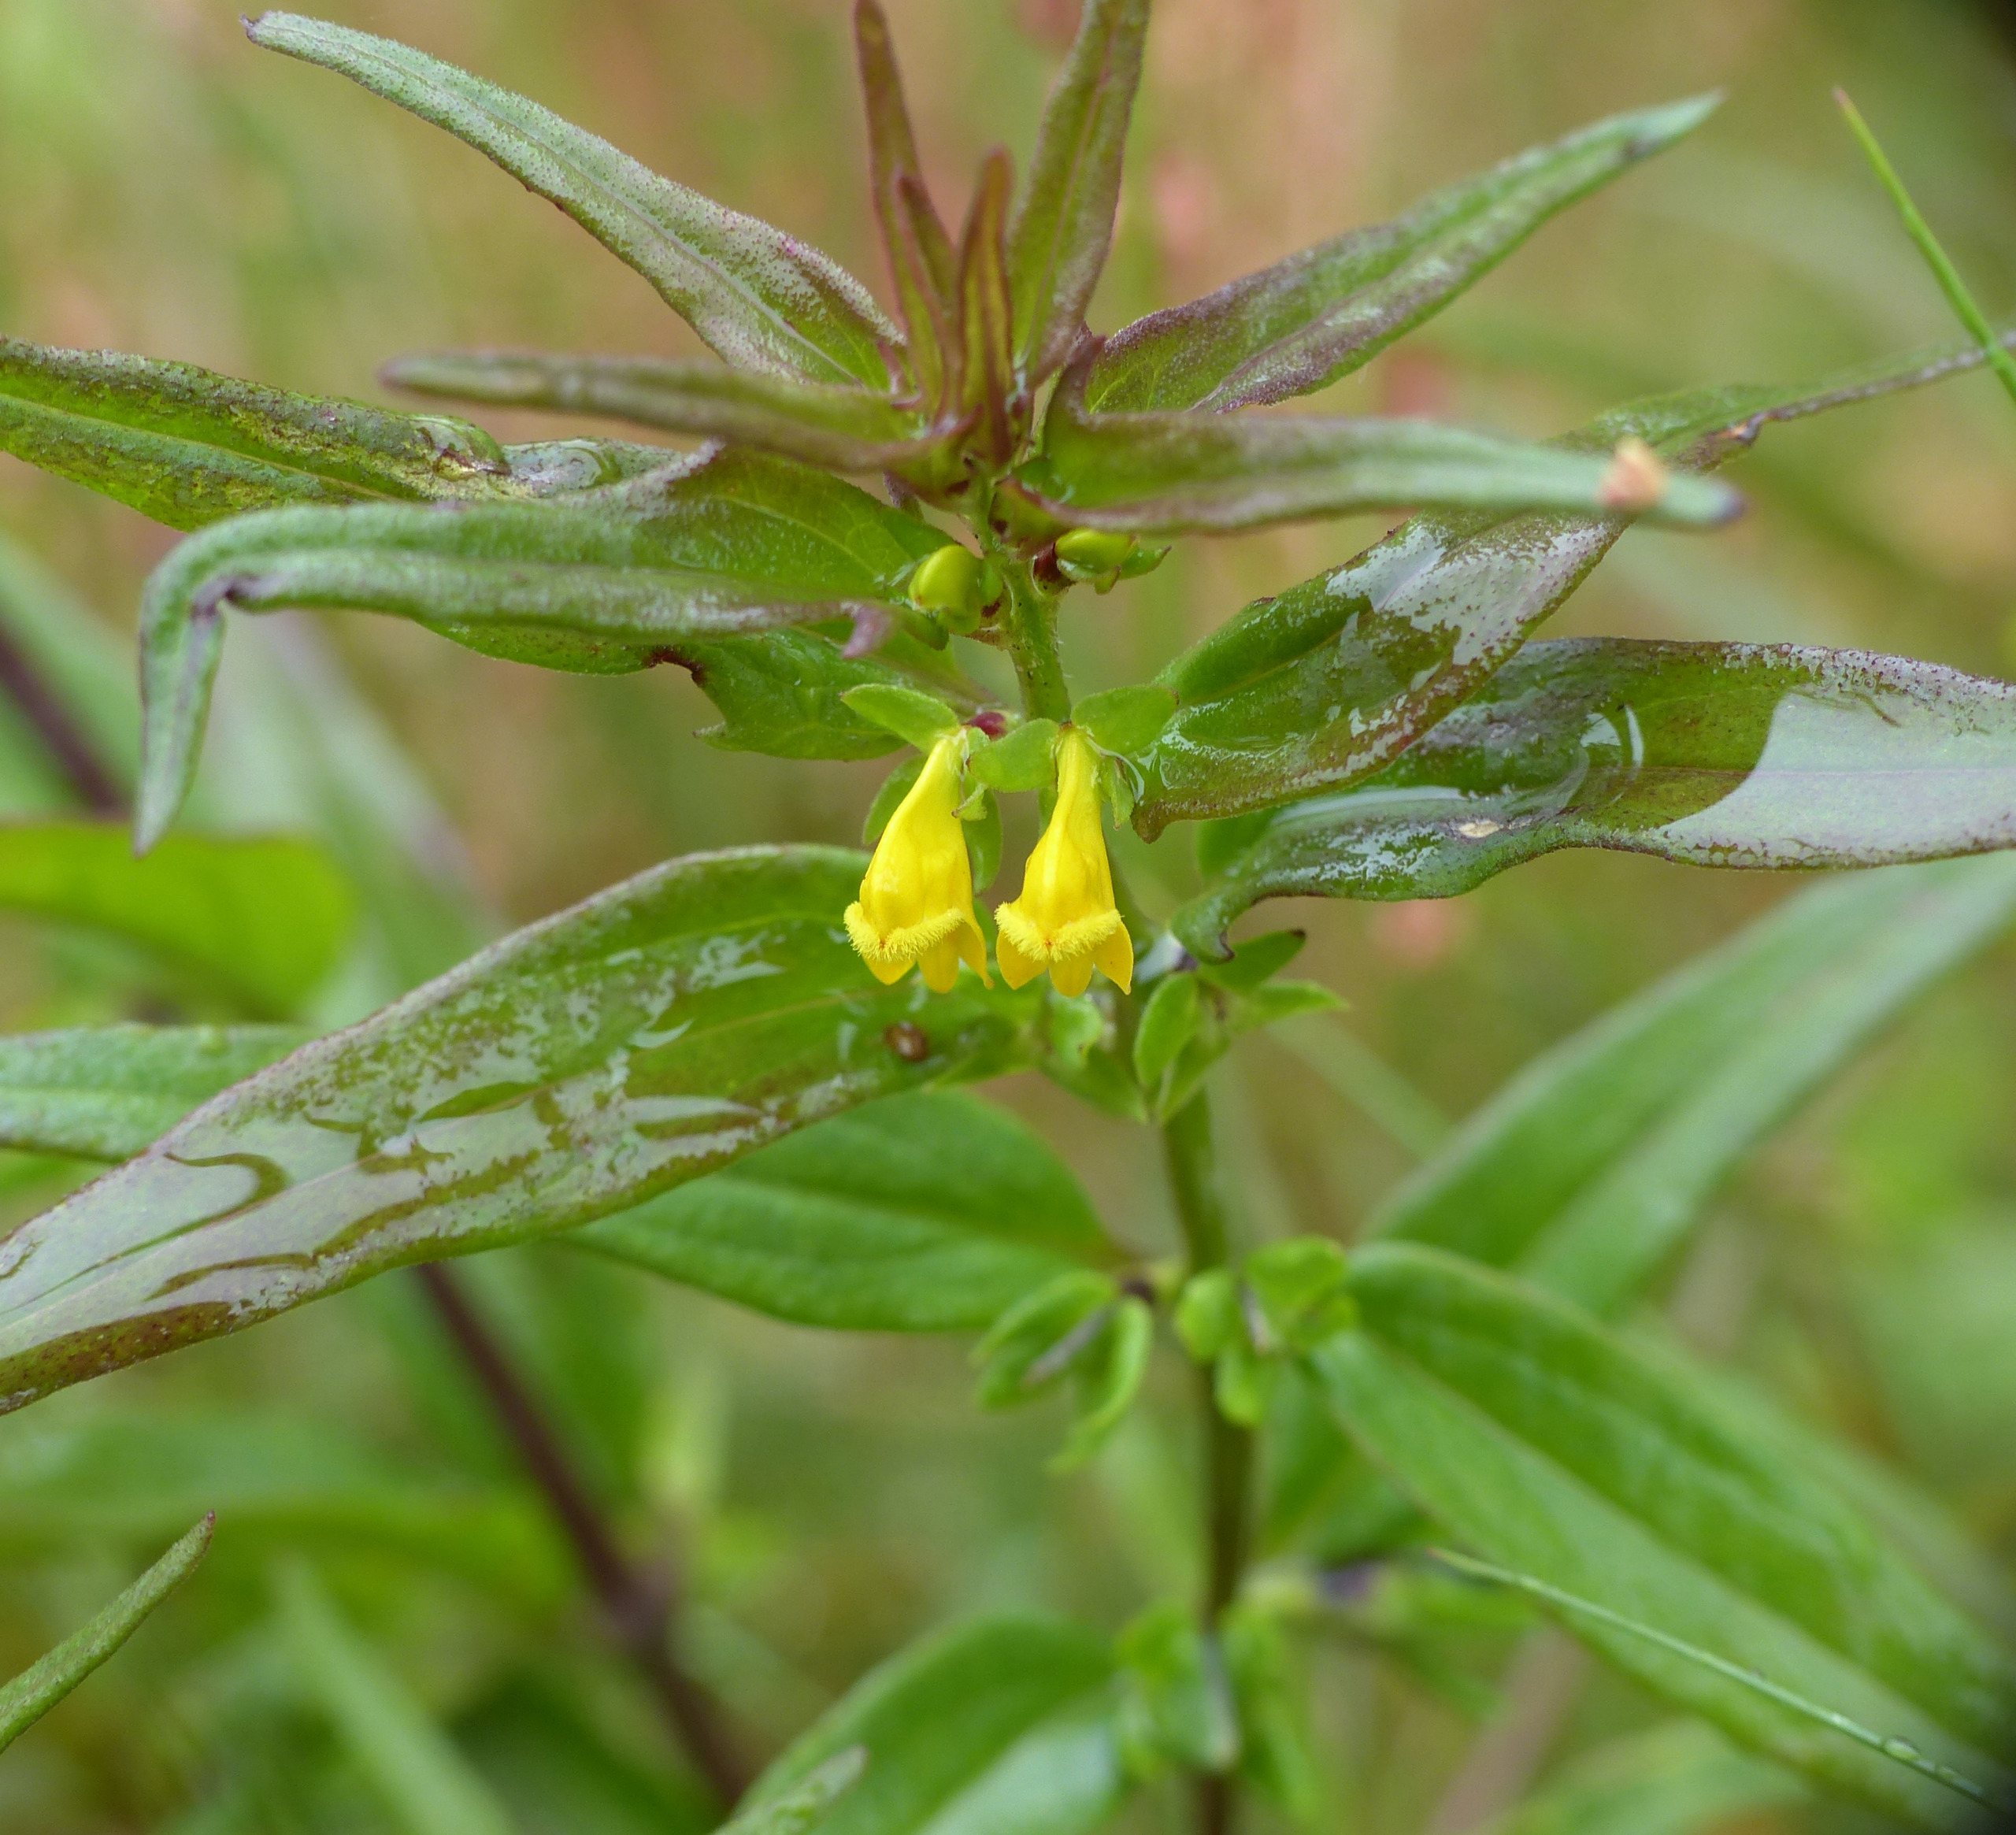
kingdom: Plantae
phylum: Tracheophyta
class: Magnoliopsida
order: Lamiales
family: Orobanchaceae
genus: Melampyrum
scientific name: Melampyrum sylvaticum
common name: Skov-kohvede
